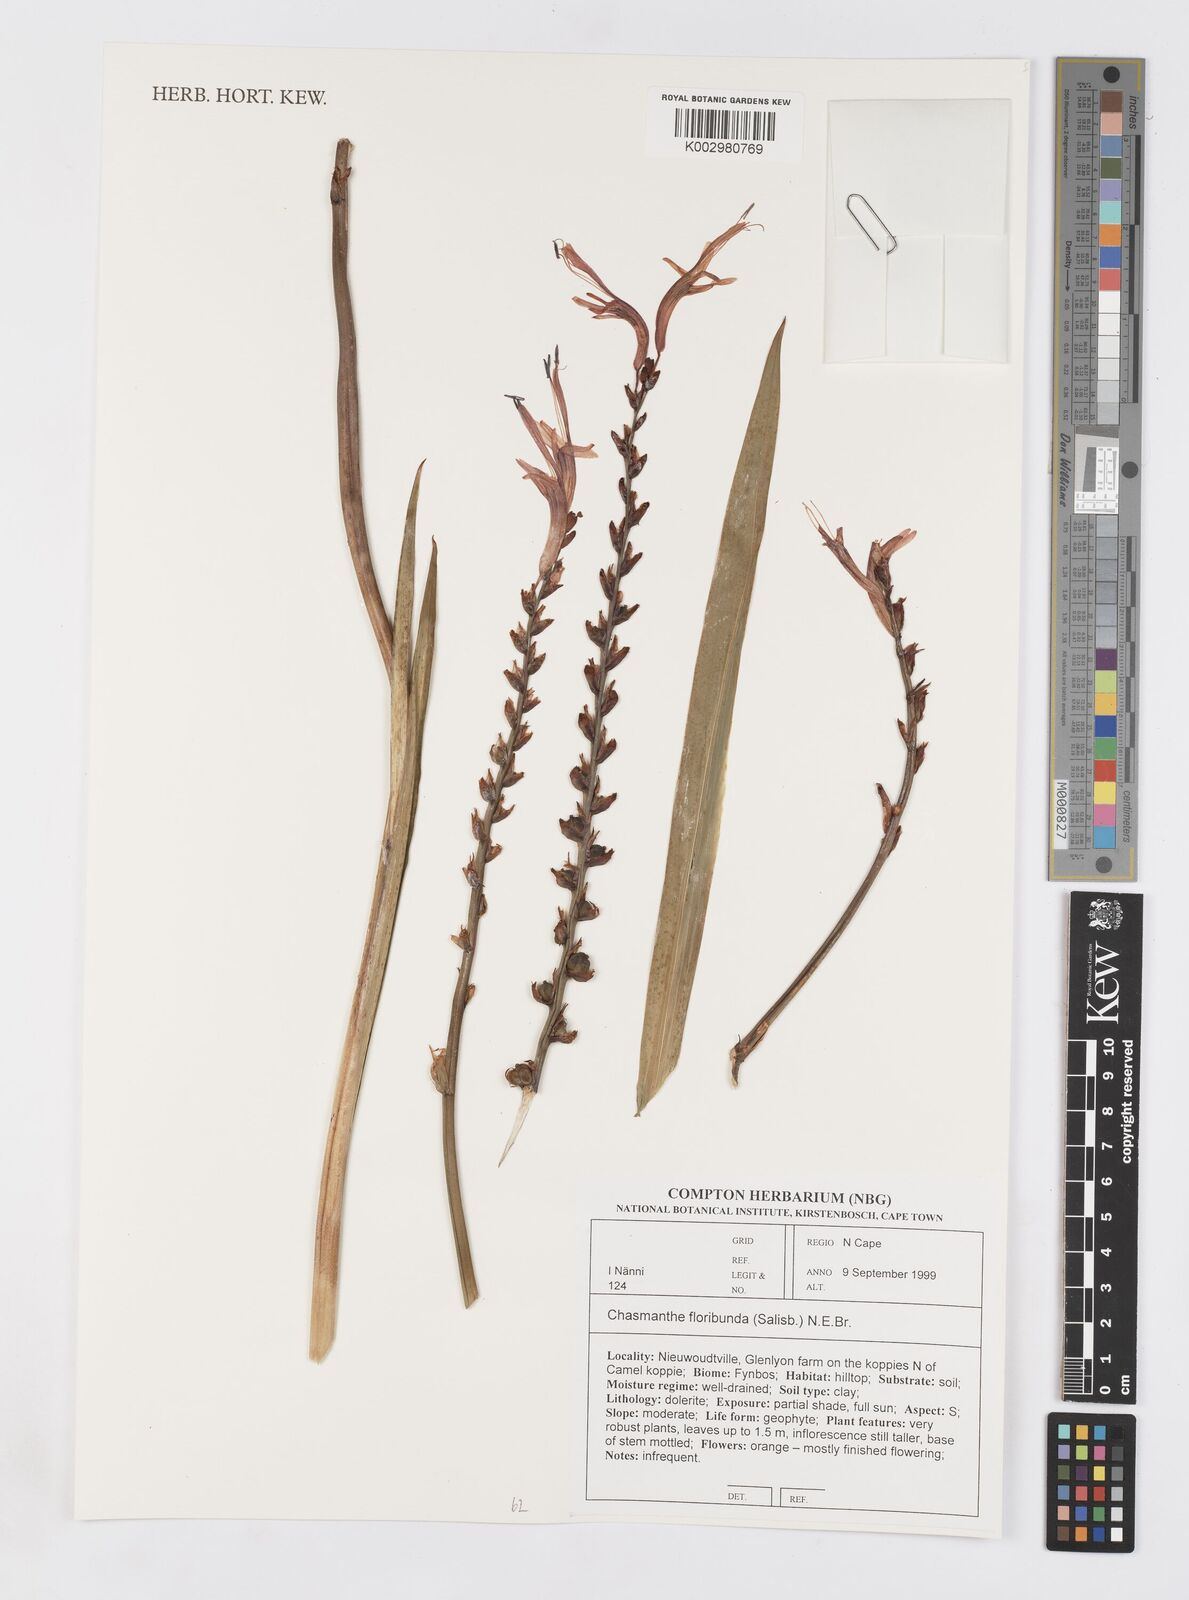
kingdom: Plantae
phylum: Tracheophyta
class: Liliopsida
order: Asparagales
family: Iridaceae
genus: Chasmanthe
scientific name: Chasmanthe floribunda
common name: African cornflag
